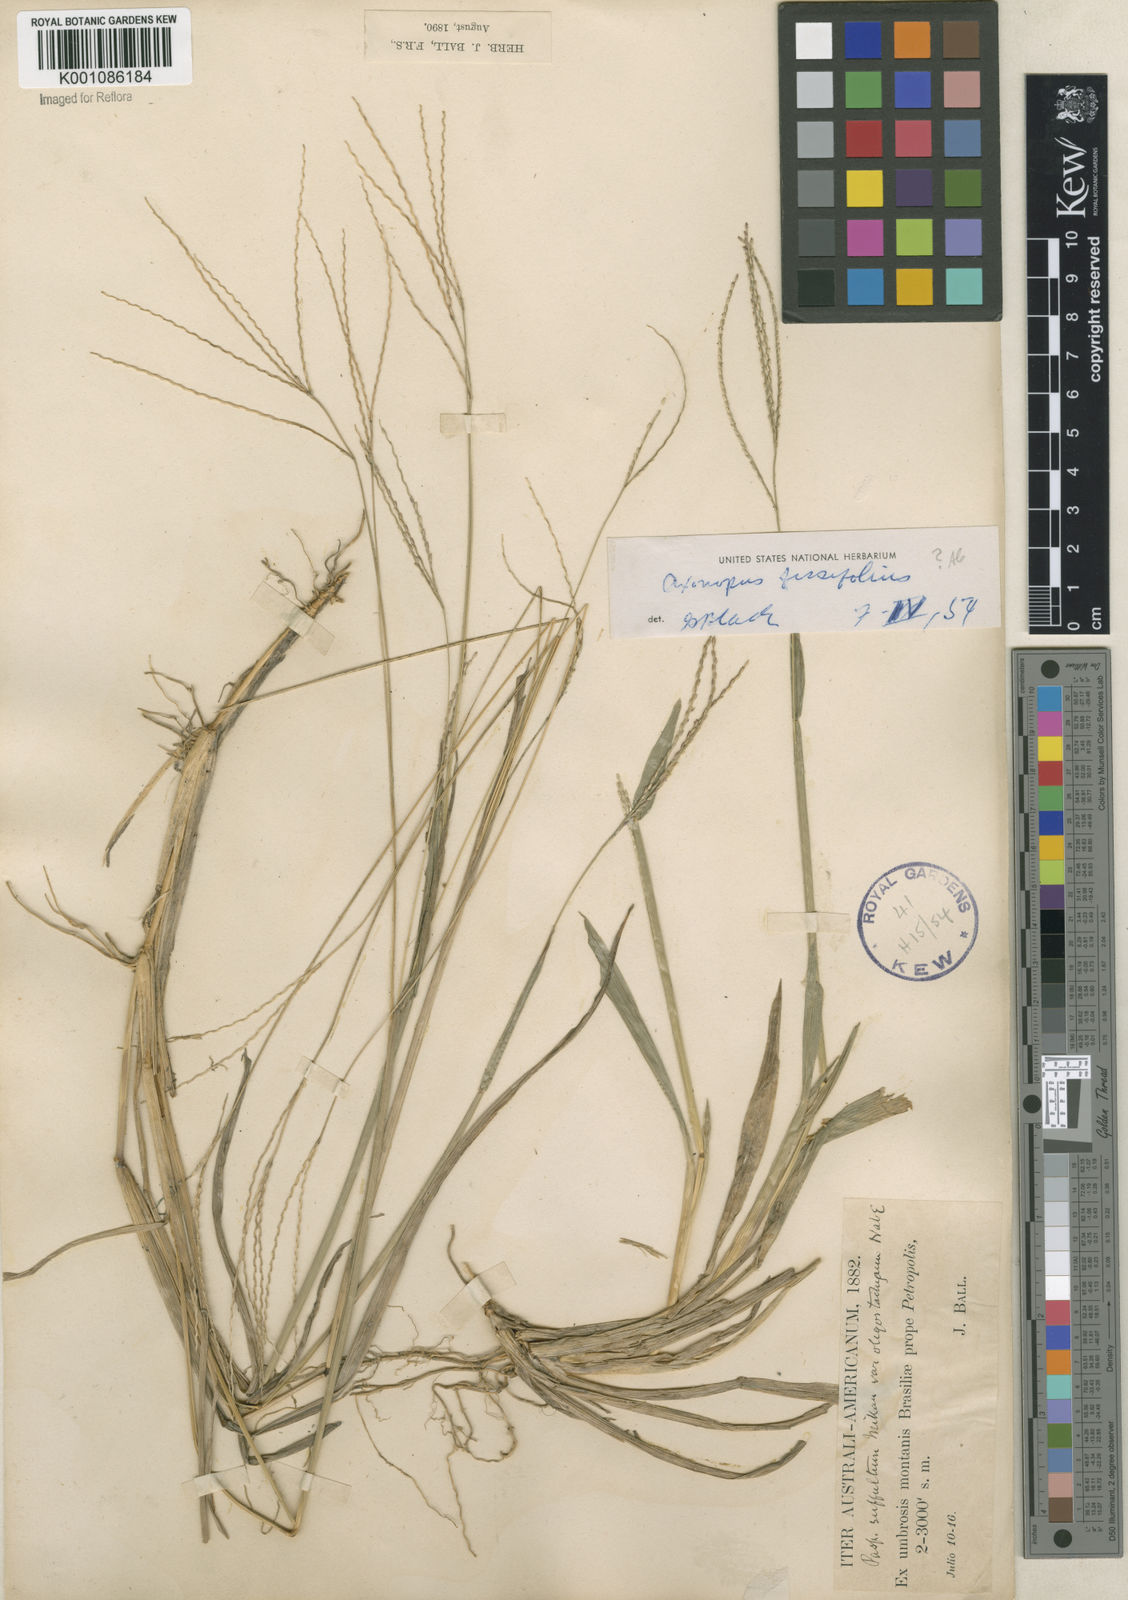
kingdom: Plantae
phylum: Tracheophyta
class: Liliopsida
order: Poales
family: Poaceae
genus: Axonopus
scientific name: Axonopus
